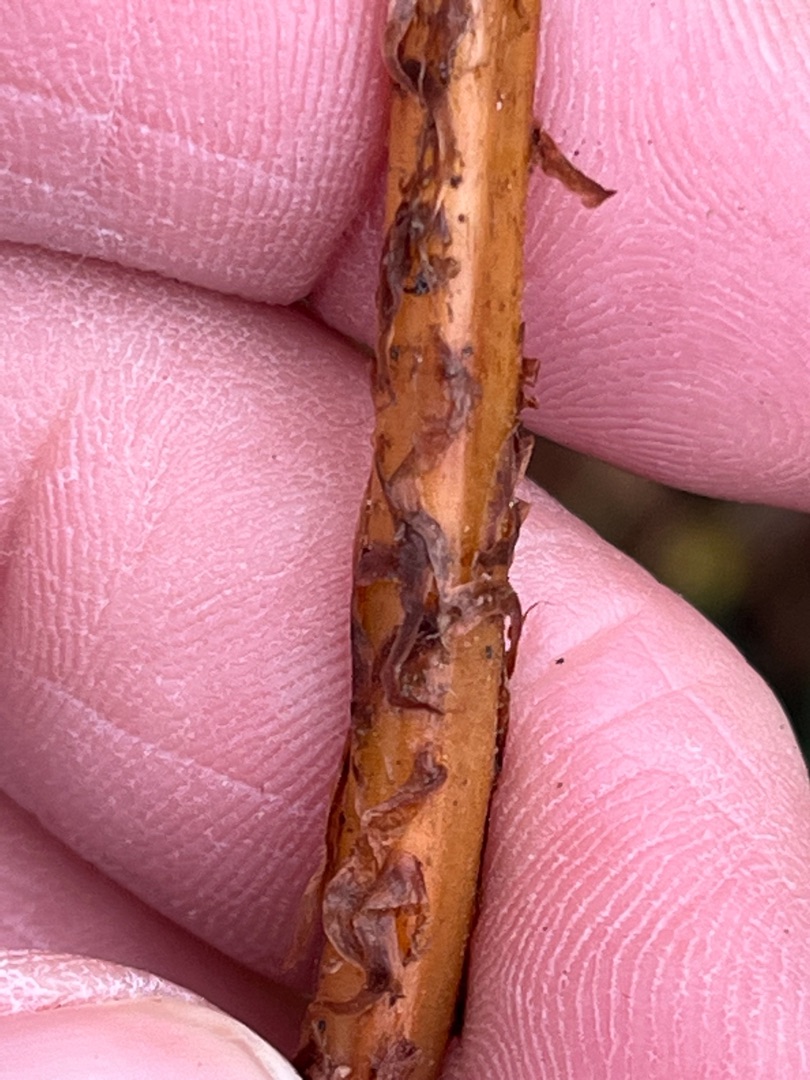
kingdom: Plantae
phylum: Tracheophyta
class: Polypodiopsida
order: Polypodiales
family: Athyriaceae
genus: Athyrium
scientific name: Athyrium filix-femina
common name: Fjerbregne
